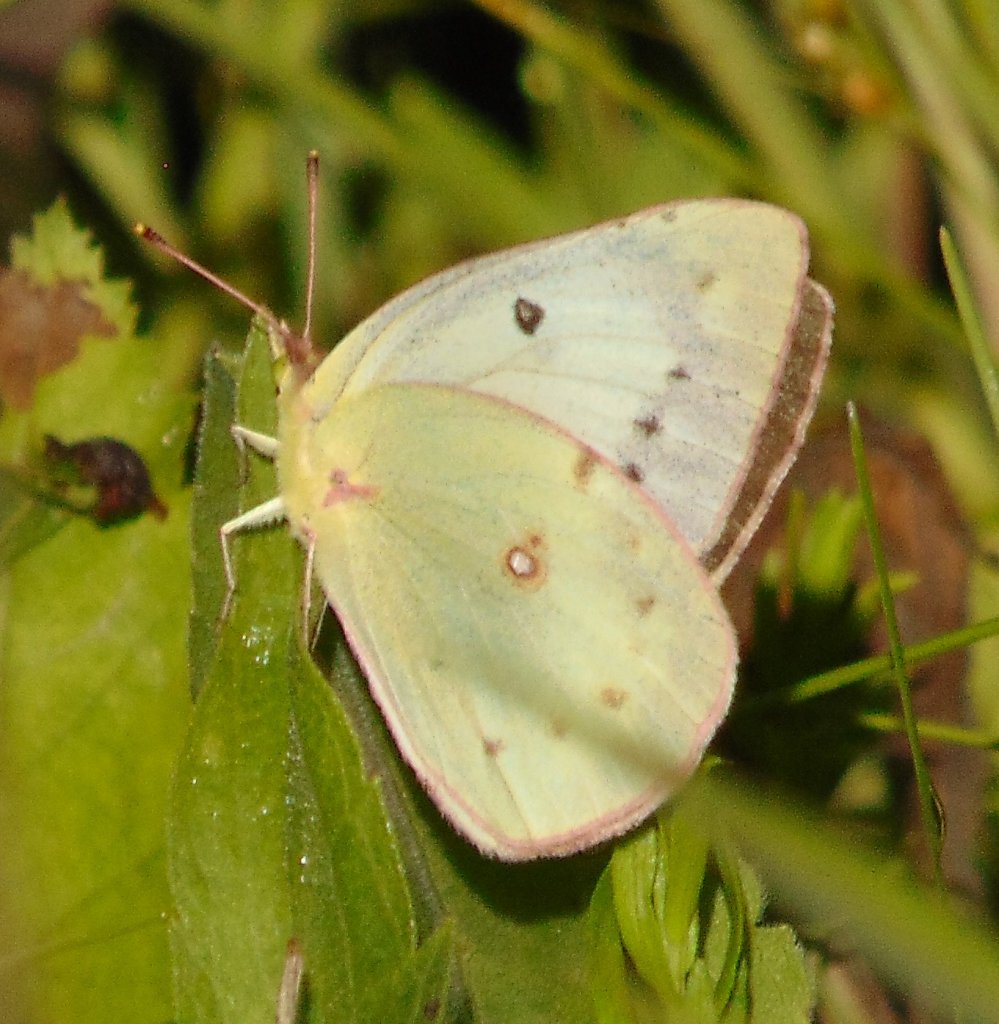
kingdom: Animalia
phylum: Arthropoda
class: Insecta
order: Lepidoptera
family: Pieridae
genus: Colias
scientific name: Colias philodice
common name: Clouded Sulphur
